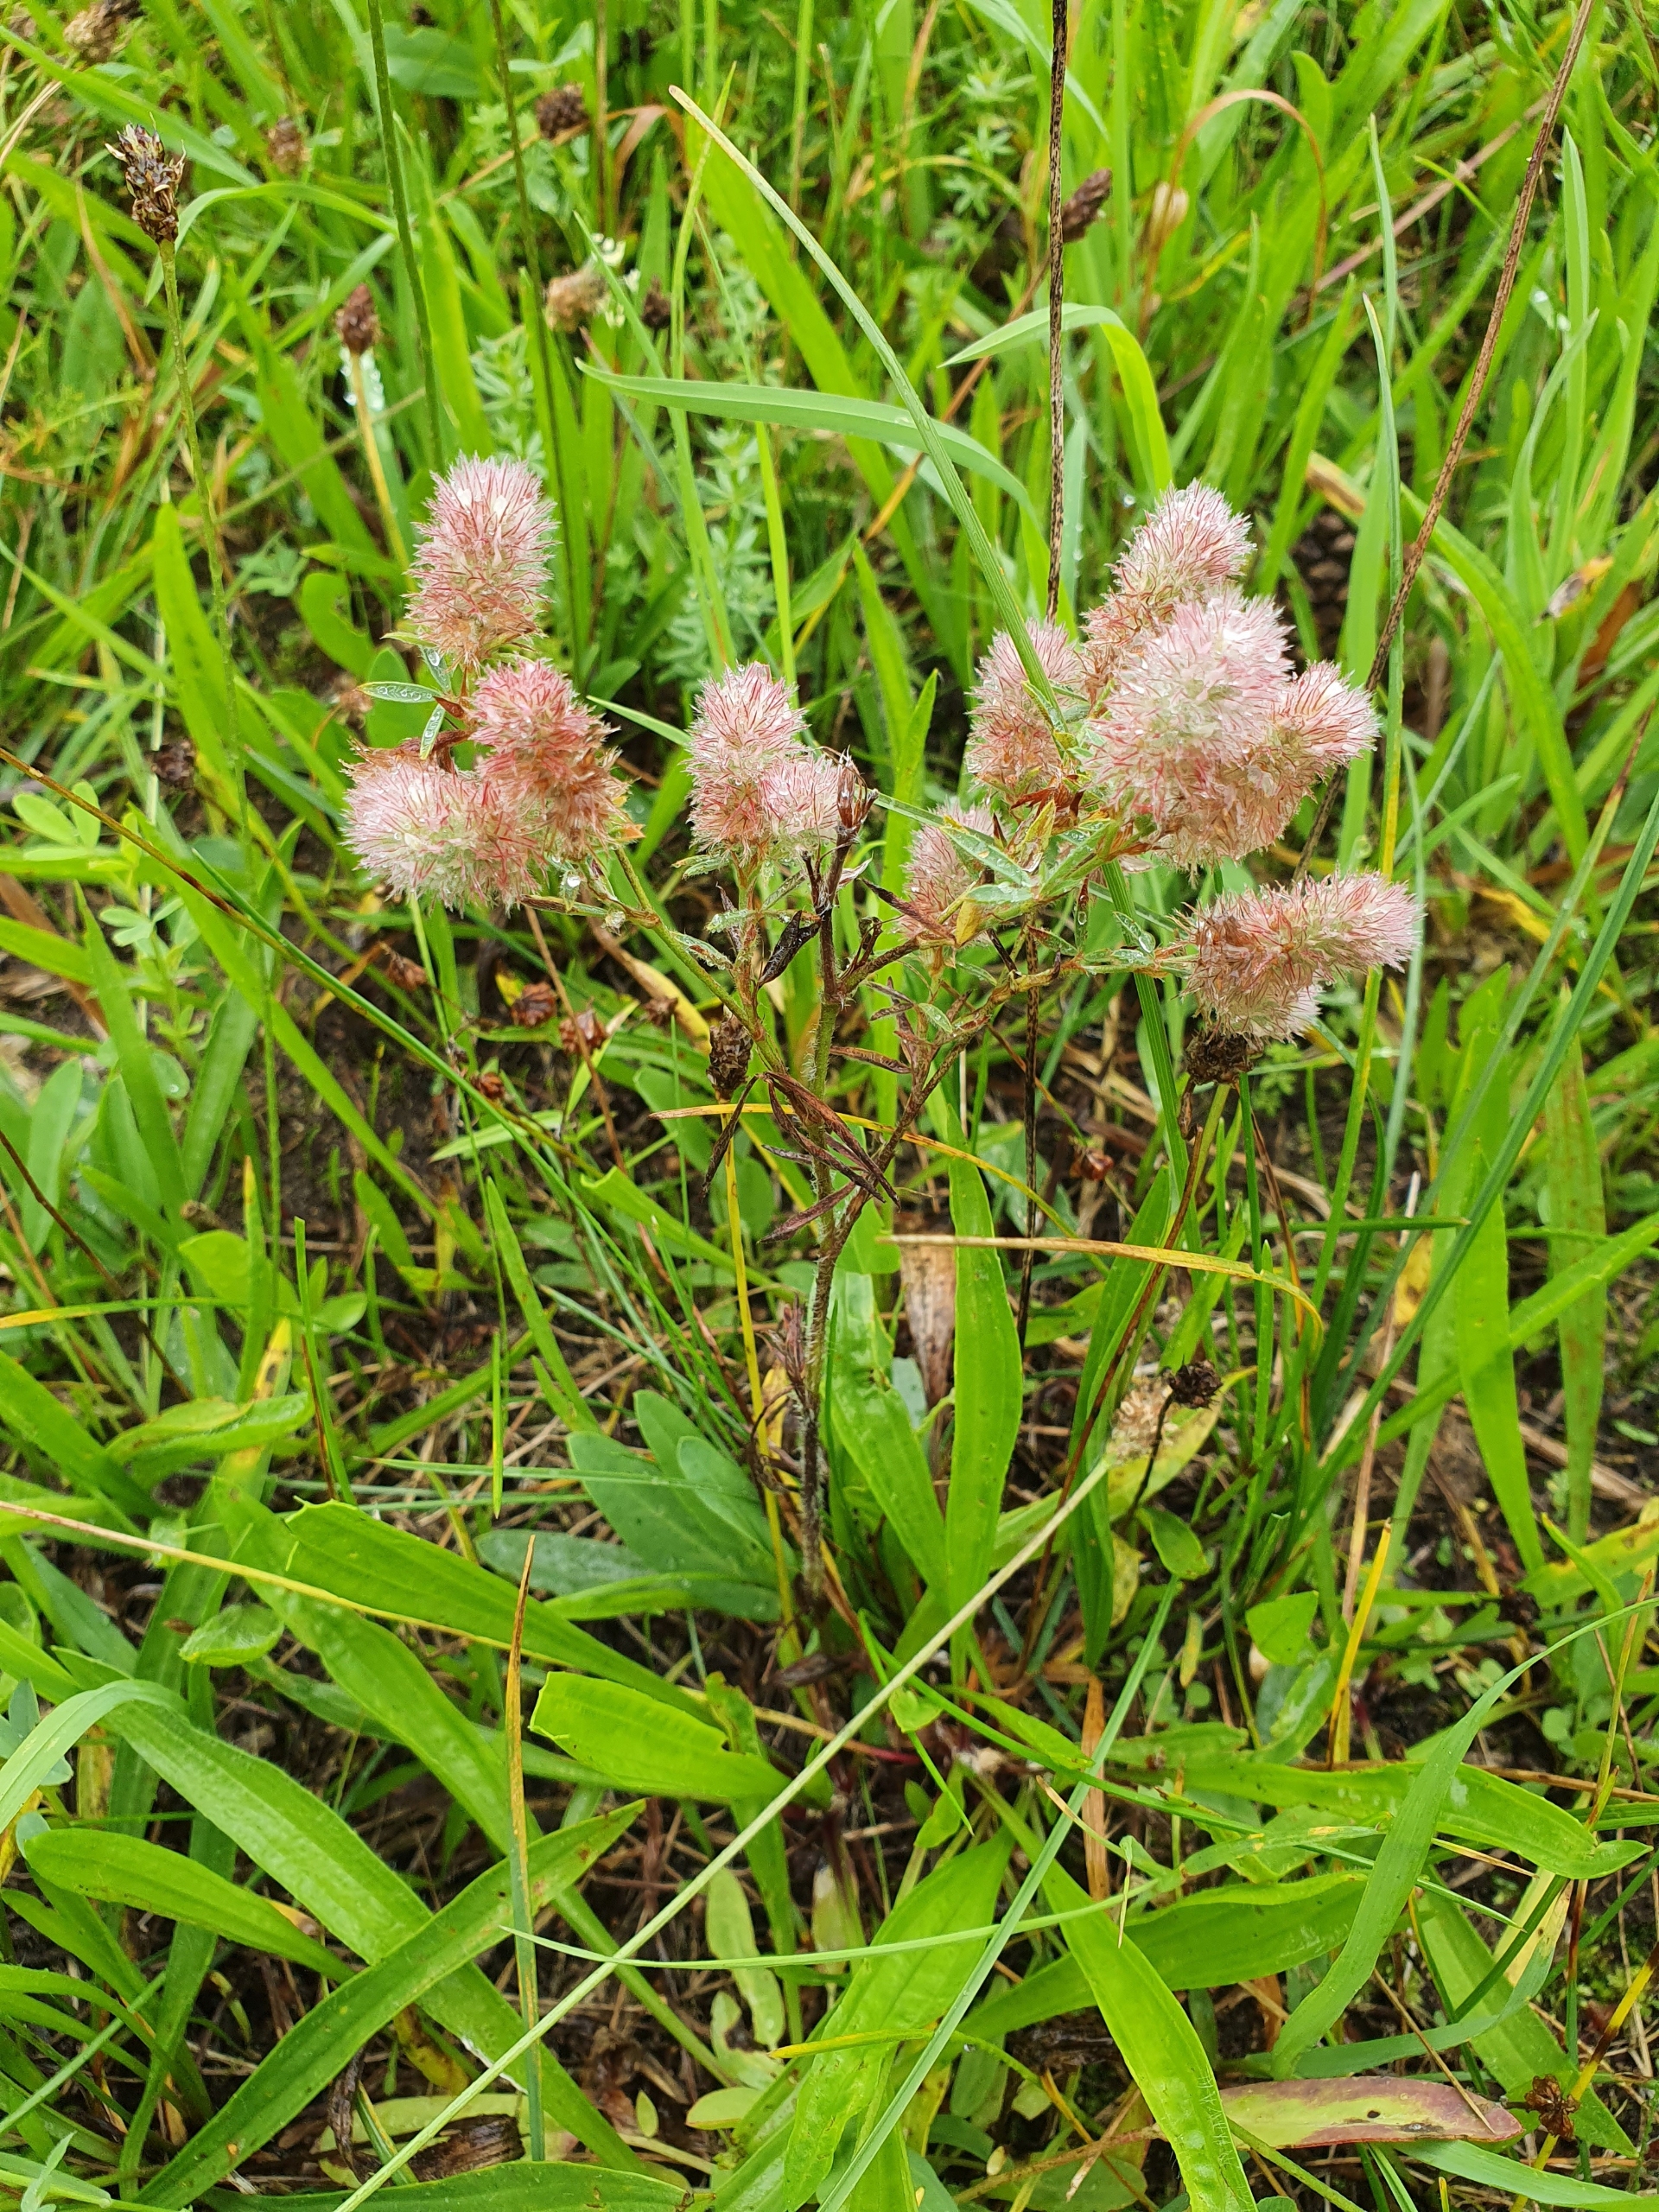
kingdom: Plantae
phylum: Tracheophyta
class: Magnoliopsida
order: Fabales
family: Fabaceae
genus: Trifolium
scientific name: Trifolium arvense
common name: Hare-kløver
